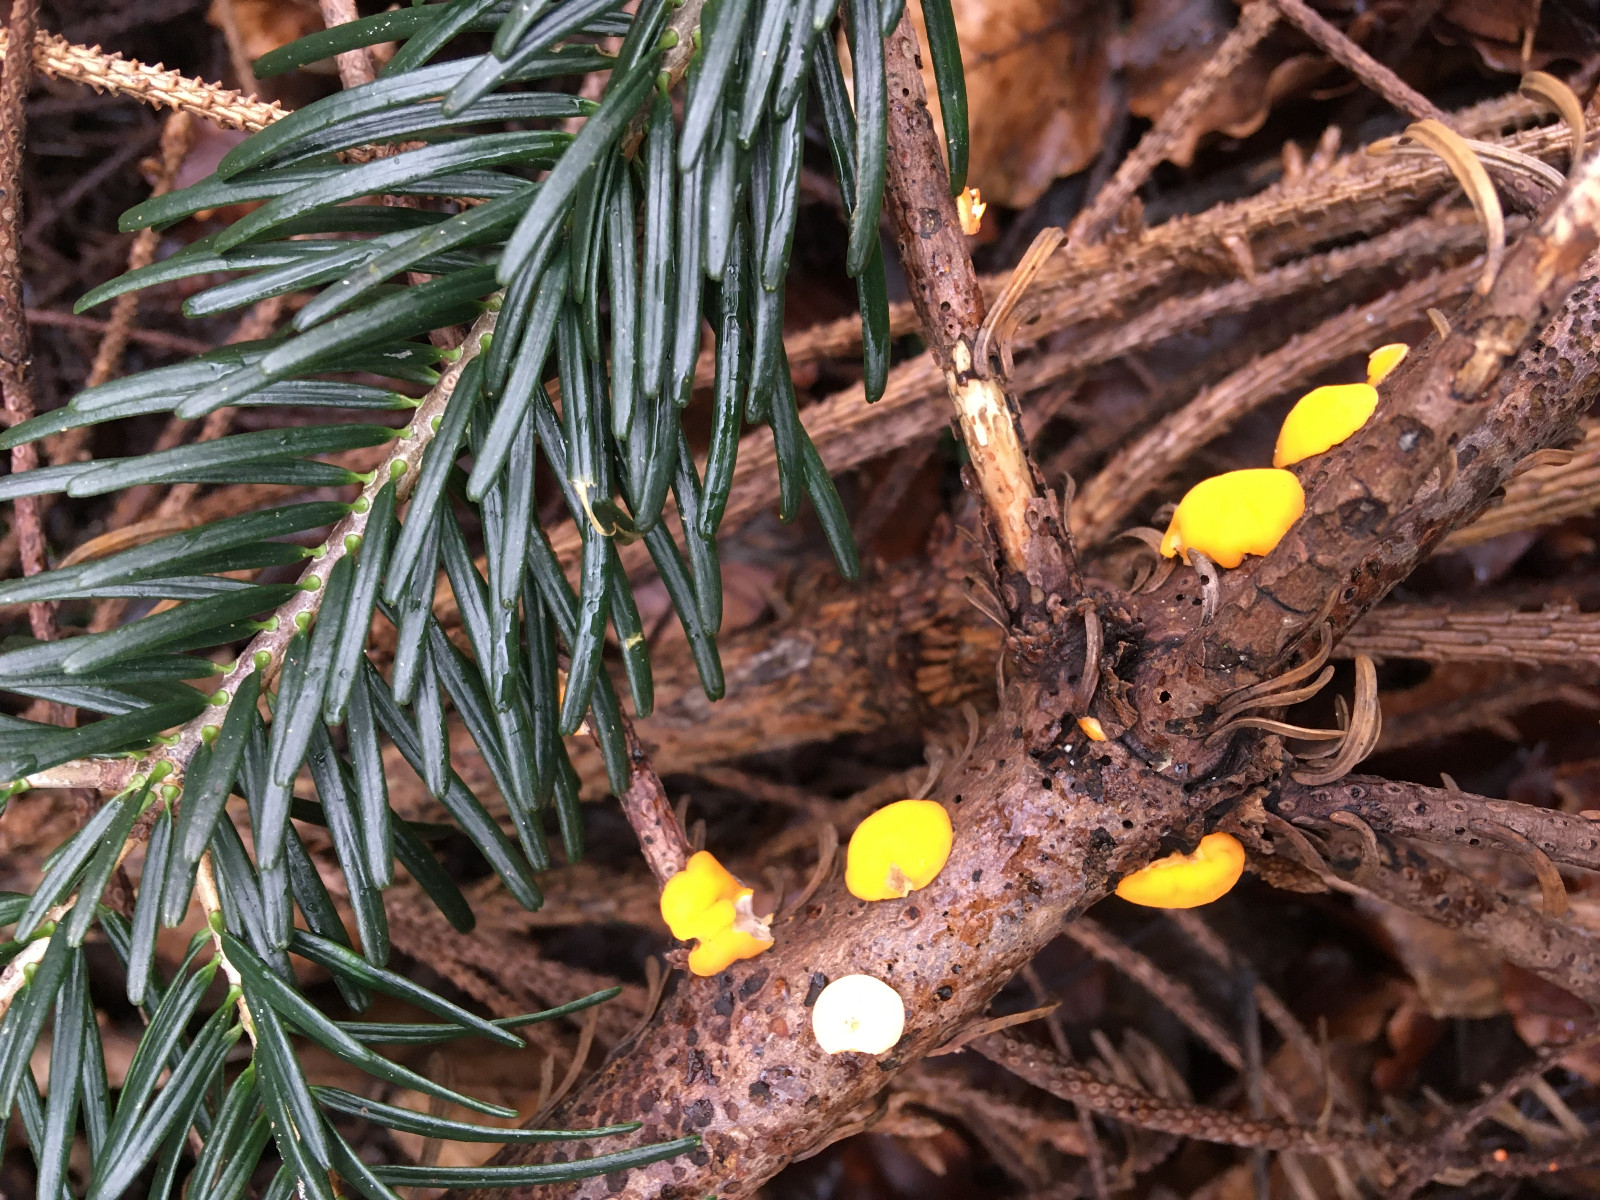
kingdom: Fungi
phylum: Ascomycota
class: Pezizomycetes
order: Pezizales
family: Sarcoscyphaceae
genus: Pithya
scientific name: Pithya vulgaris
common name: stor dukatbæger
